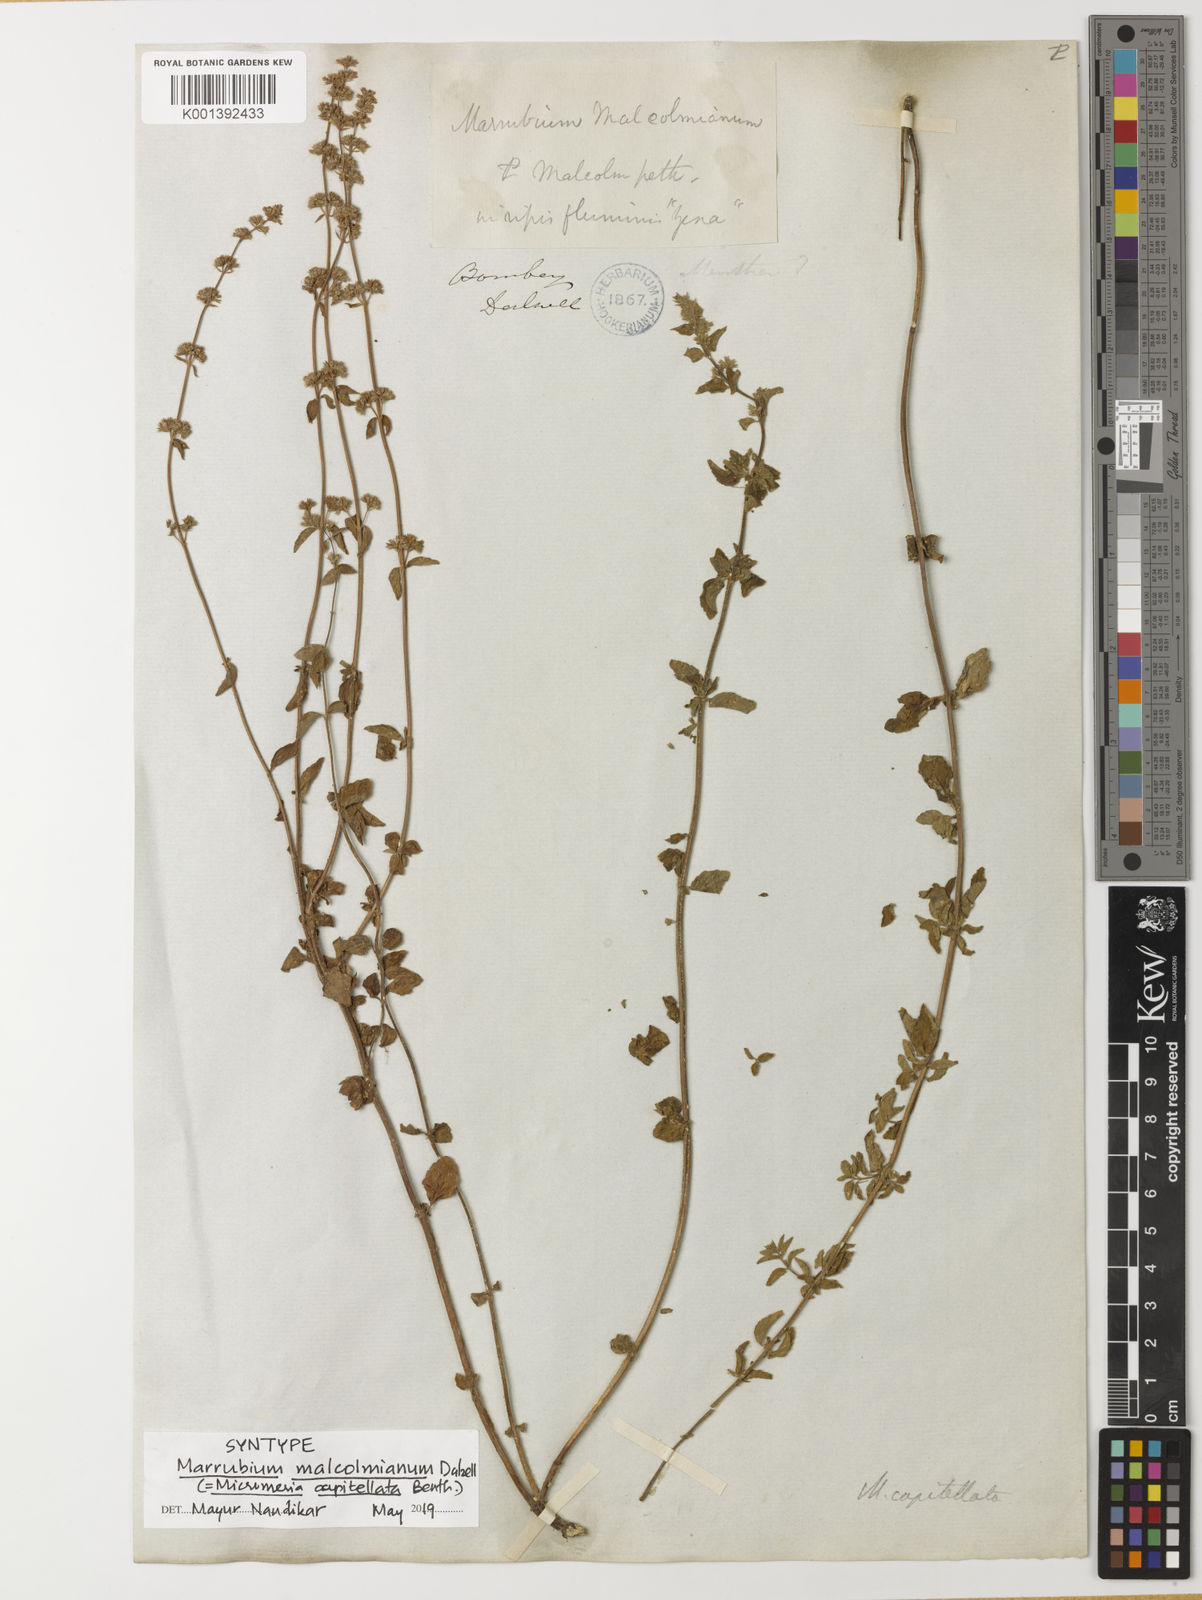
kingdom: Plantae
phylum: Tracheophyta
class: Magnoliopsida
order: Lamiales
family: Lamiaceae
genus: Clinopodium
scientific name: Clinopodium capitellatum
